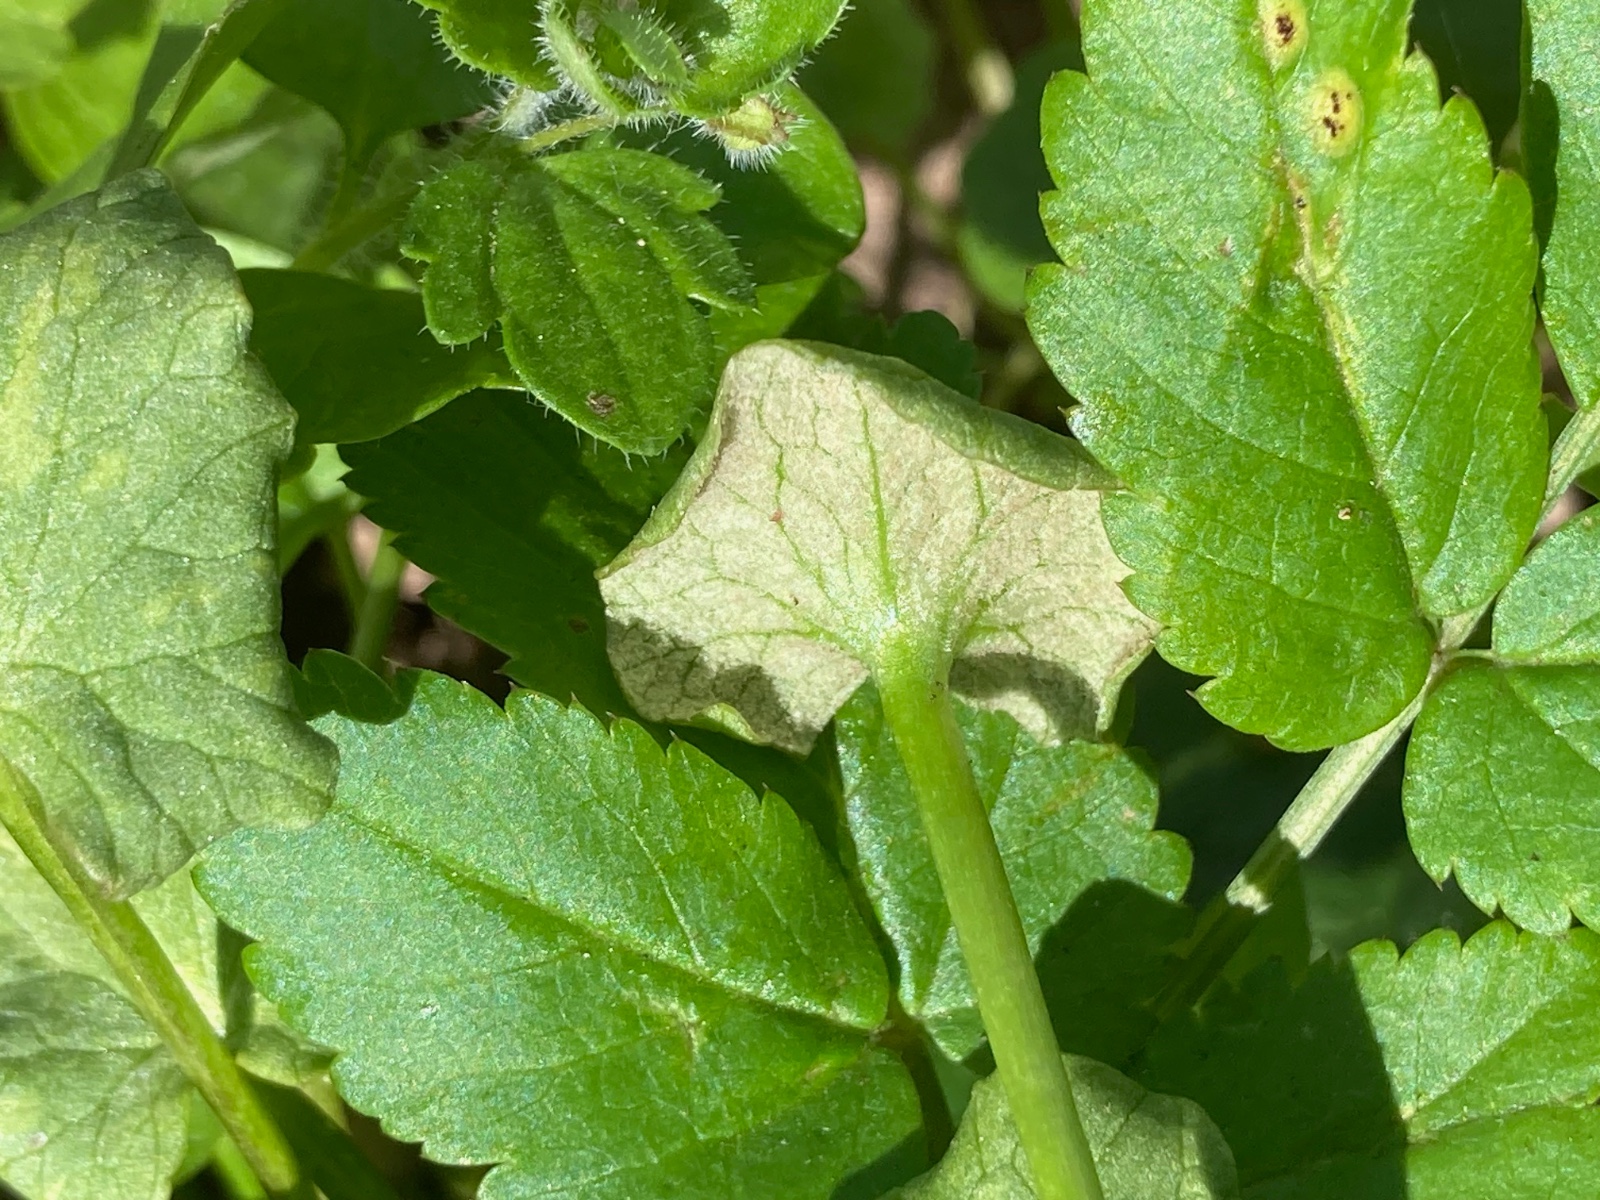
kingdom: Chromista
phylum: Oomycota
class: Peronosporea
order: Peronosporales
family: Peronosporaceae
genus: Peronospora
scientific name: Peronospora ficariae
